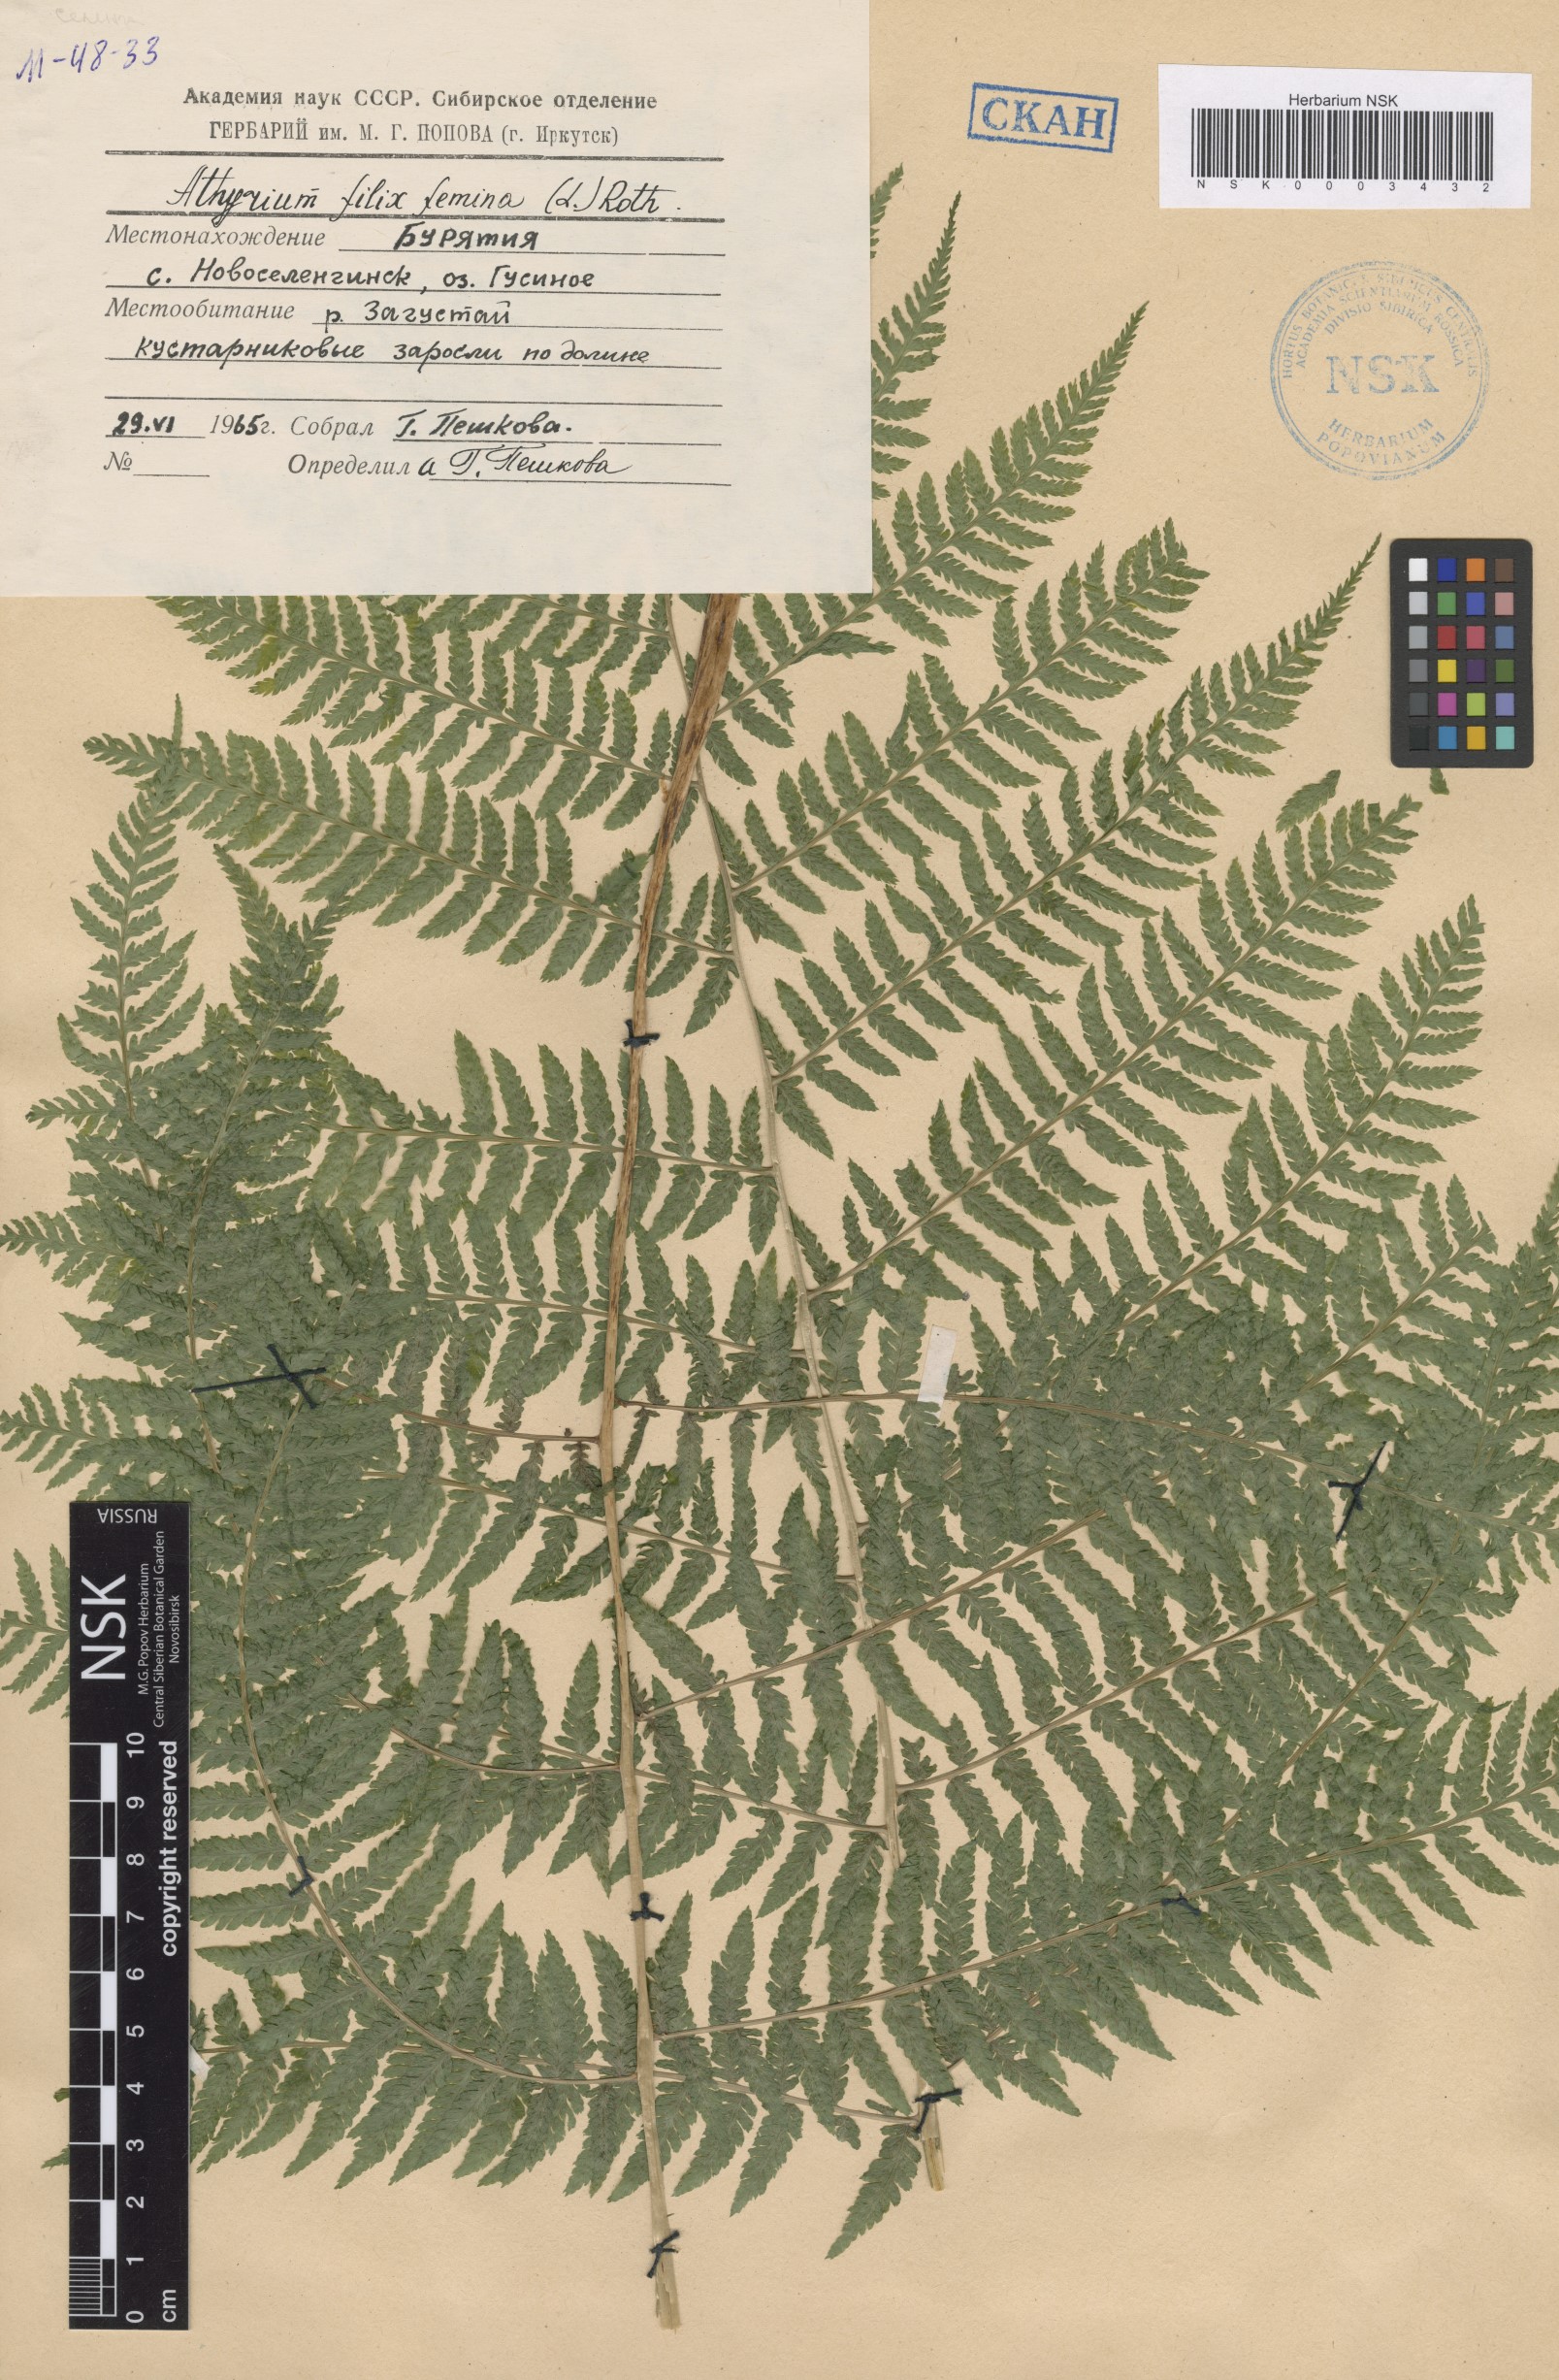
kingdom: Plantae
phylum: Tracheophyta
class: Polypodiopsida
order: Polypodiales
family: Athyriaceae
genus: Athyrium
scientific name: Athyrium filix-femina
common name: Lady fern
